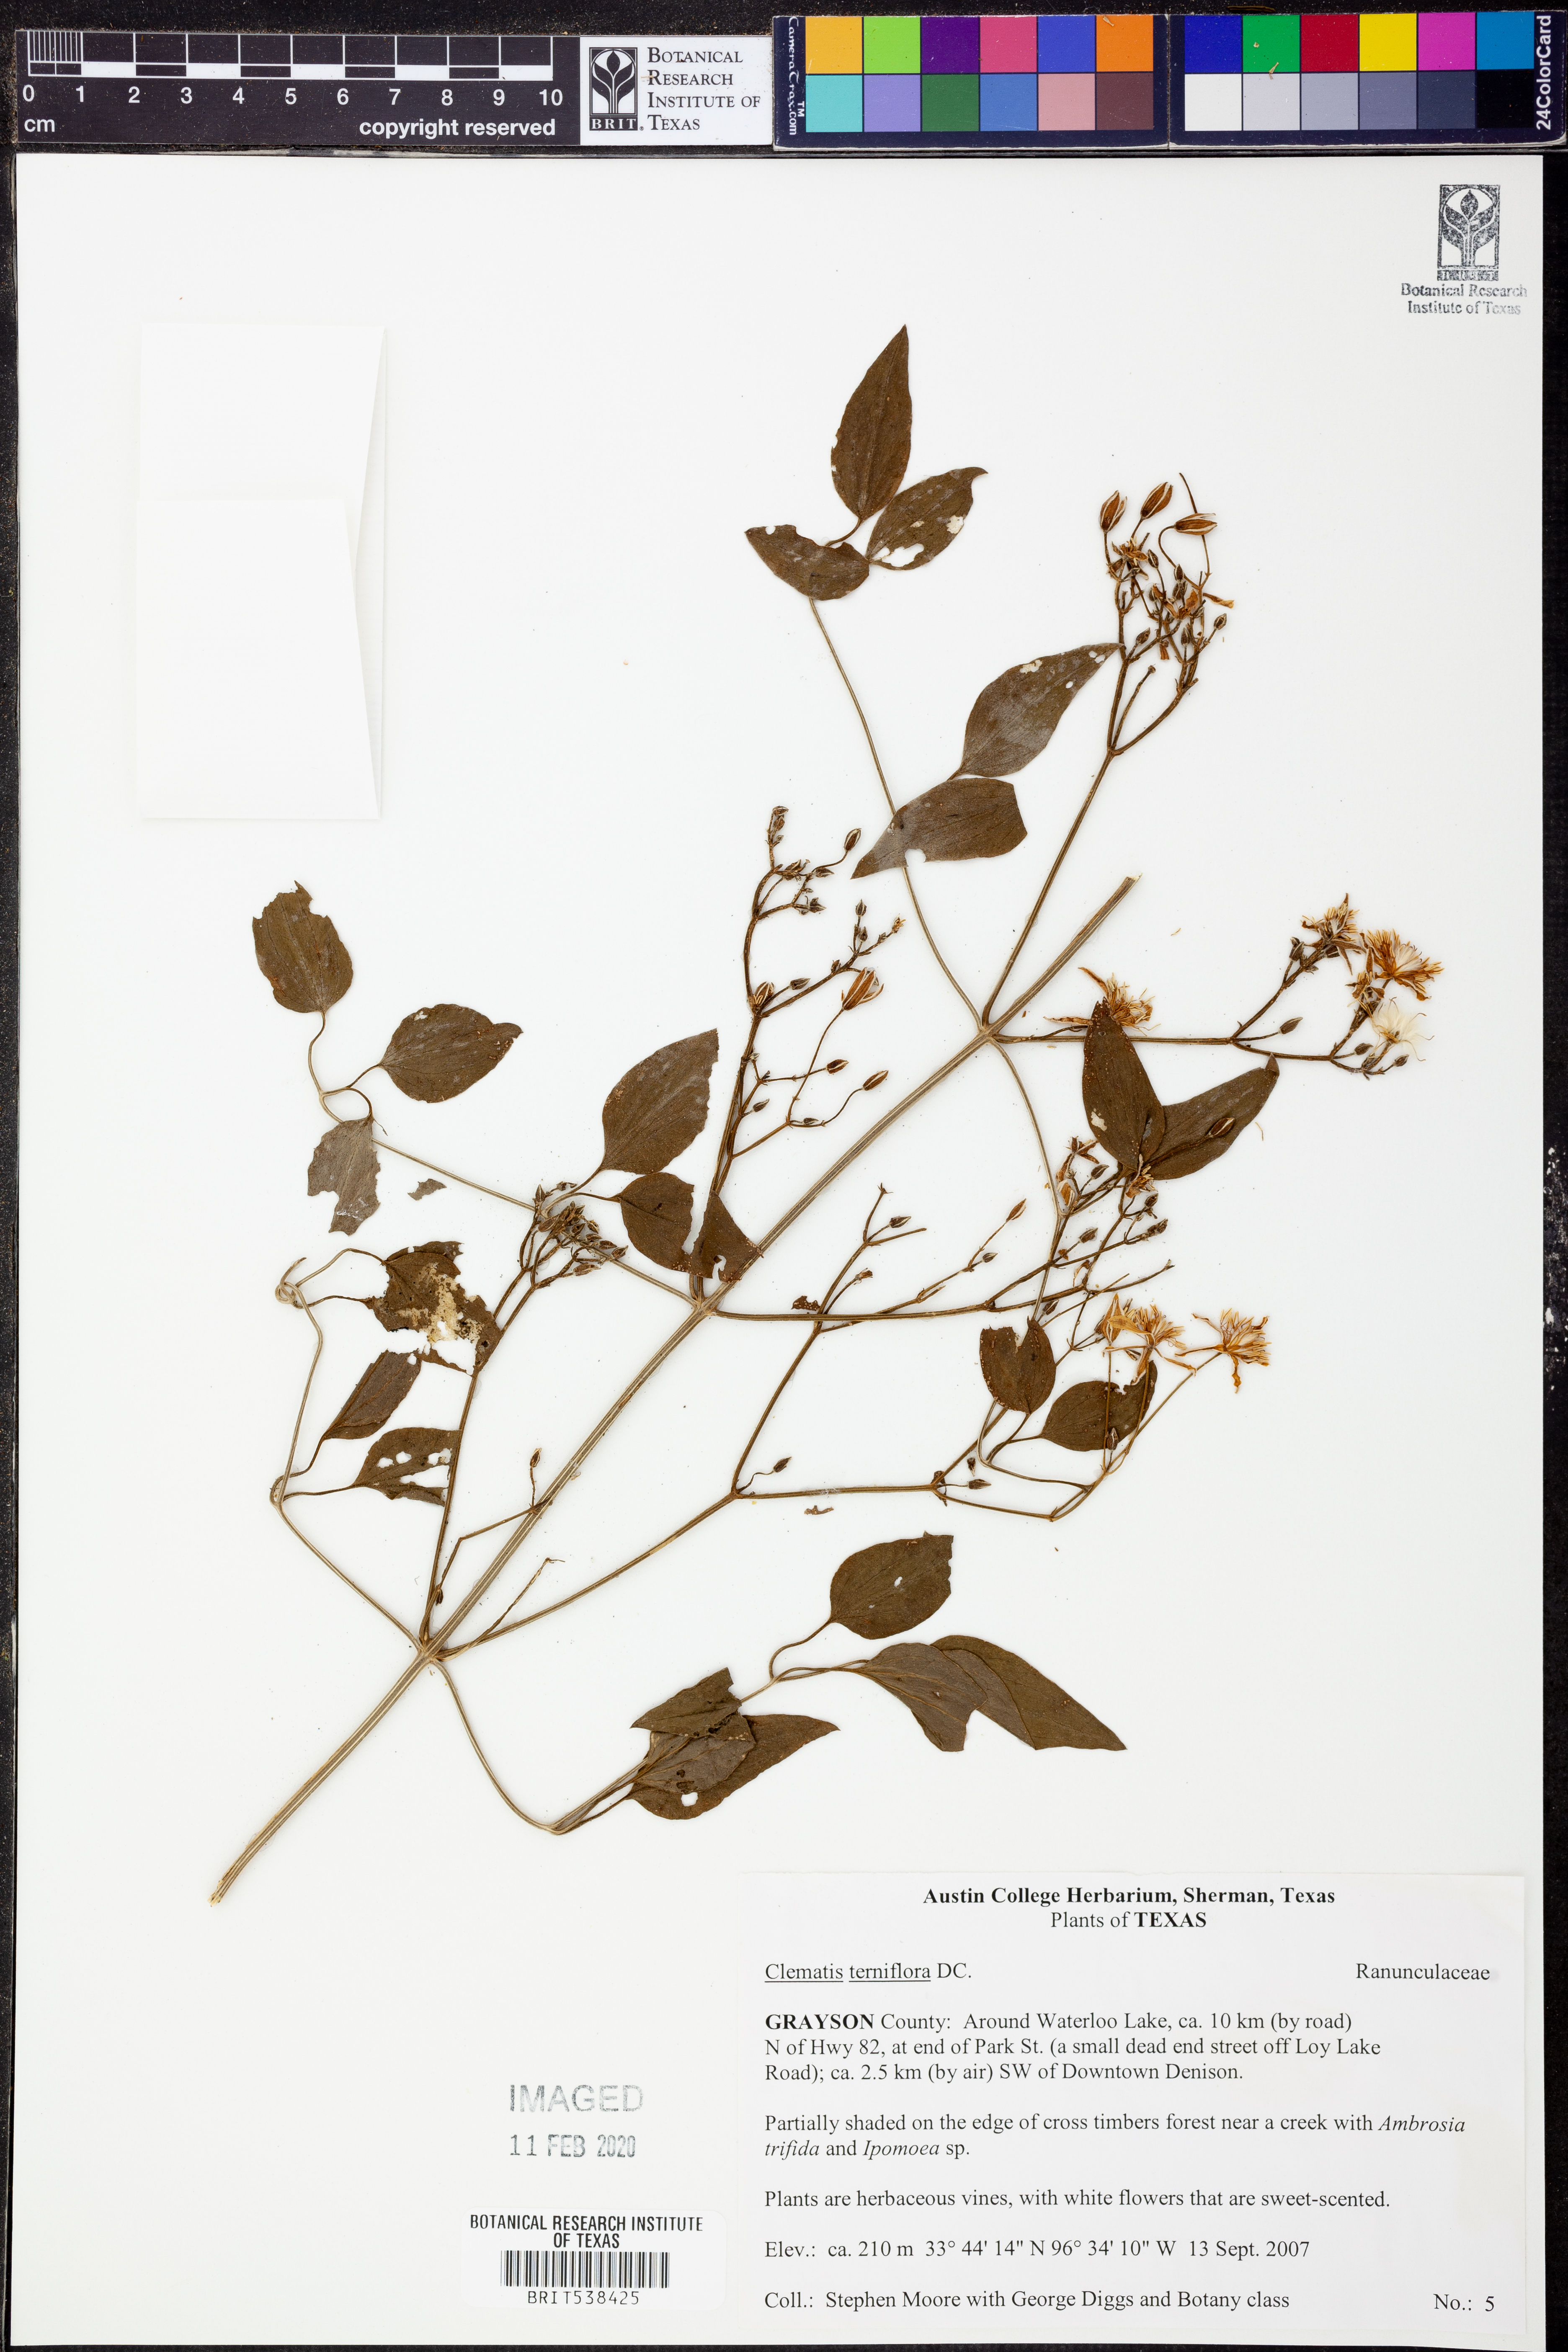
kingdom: Plantae
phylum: Tracheophyta
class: Magnoliopsida
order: Ranunculales
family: Ranunculaceae
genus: Clematis
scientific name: Clematis terniflora
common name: Sweet autumn clematis
